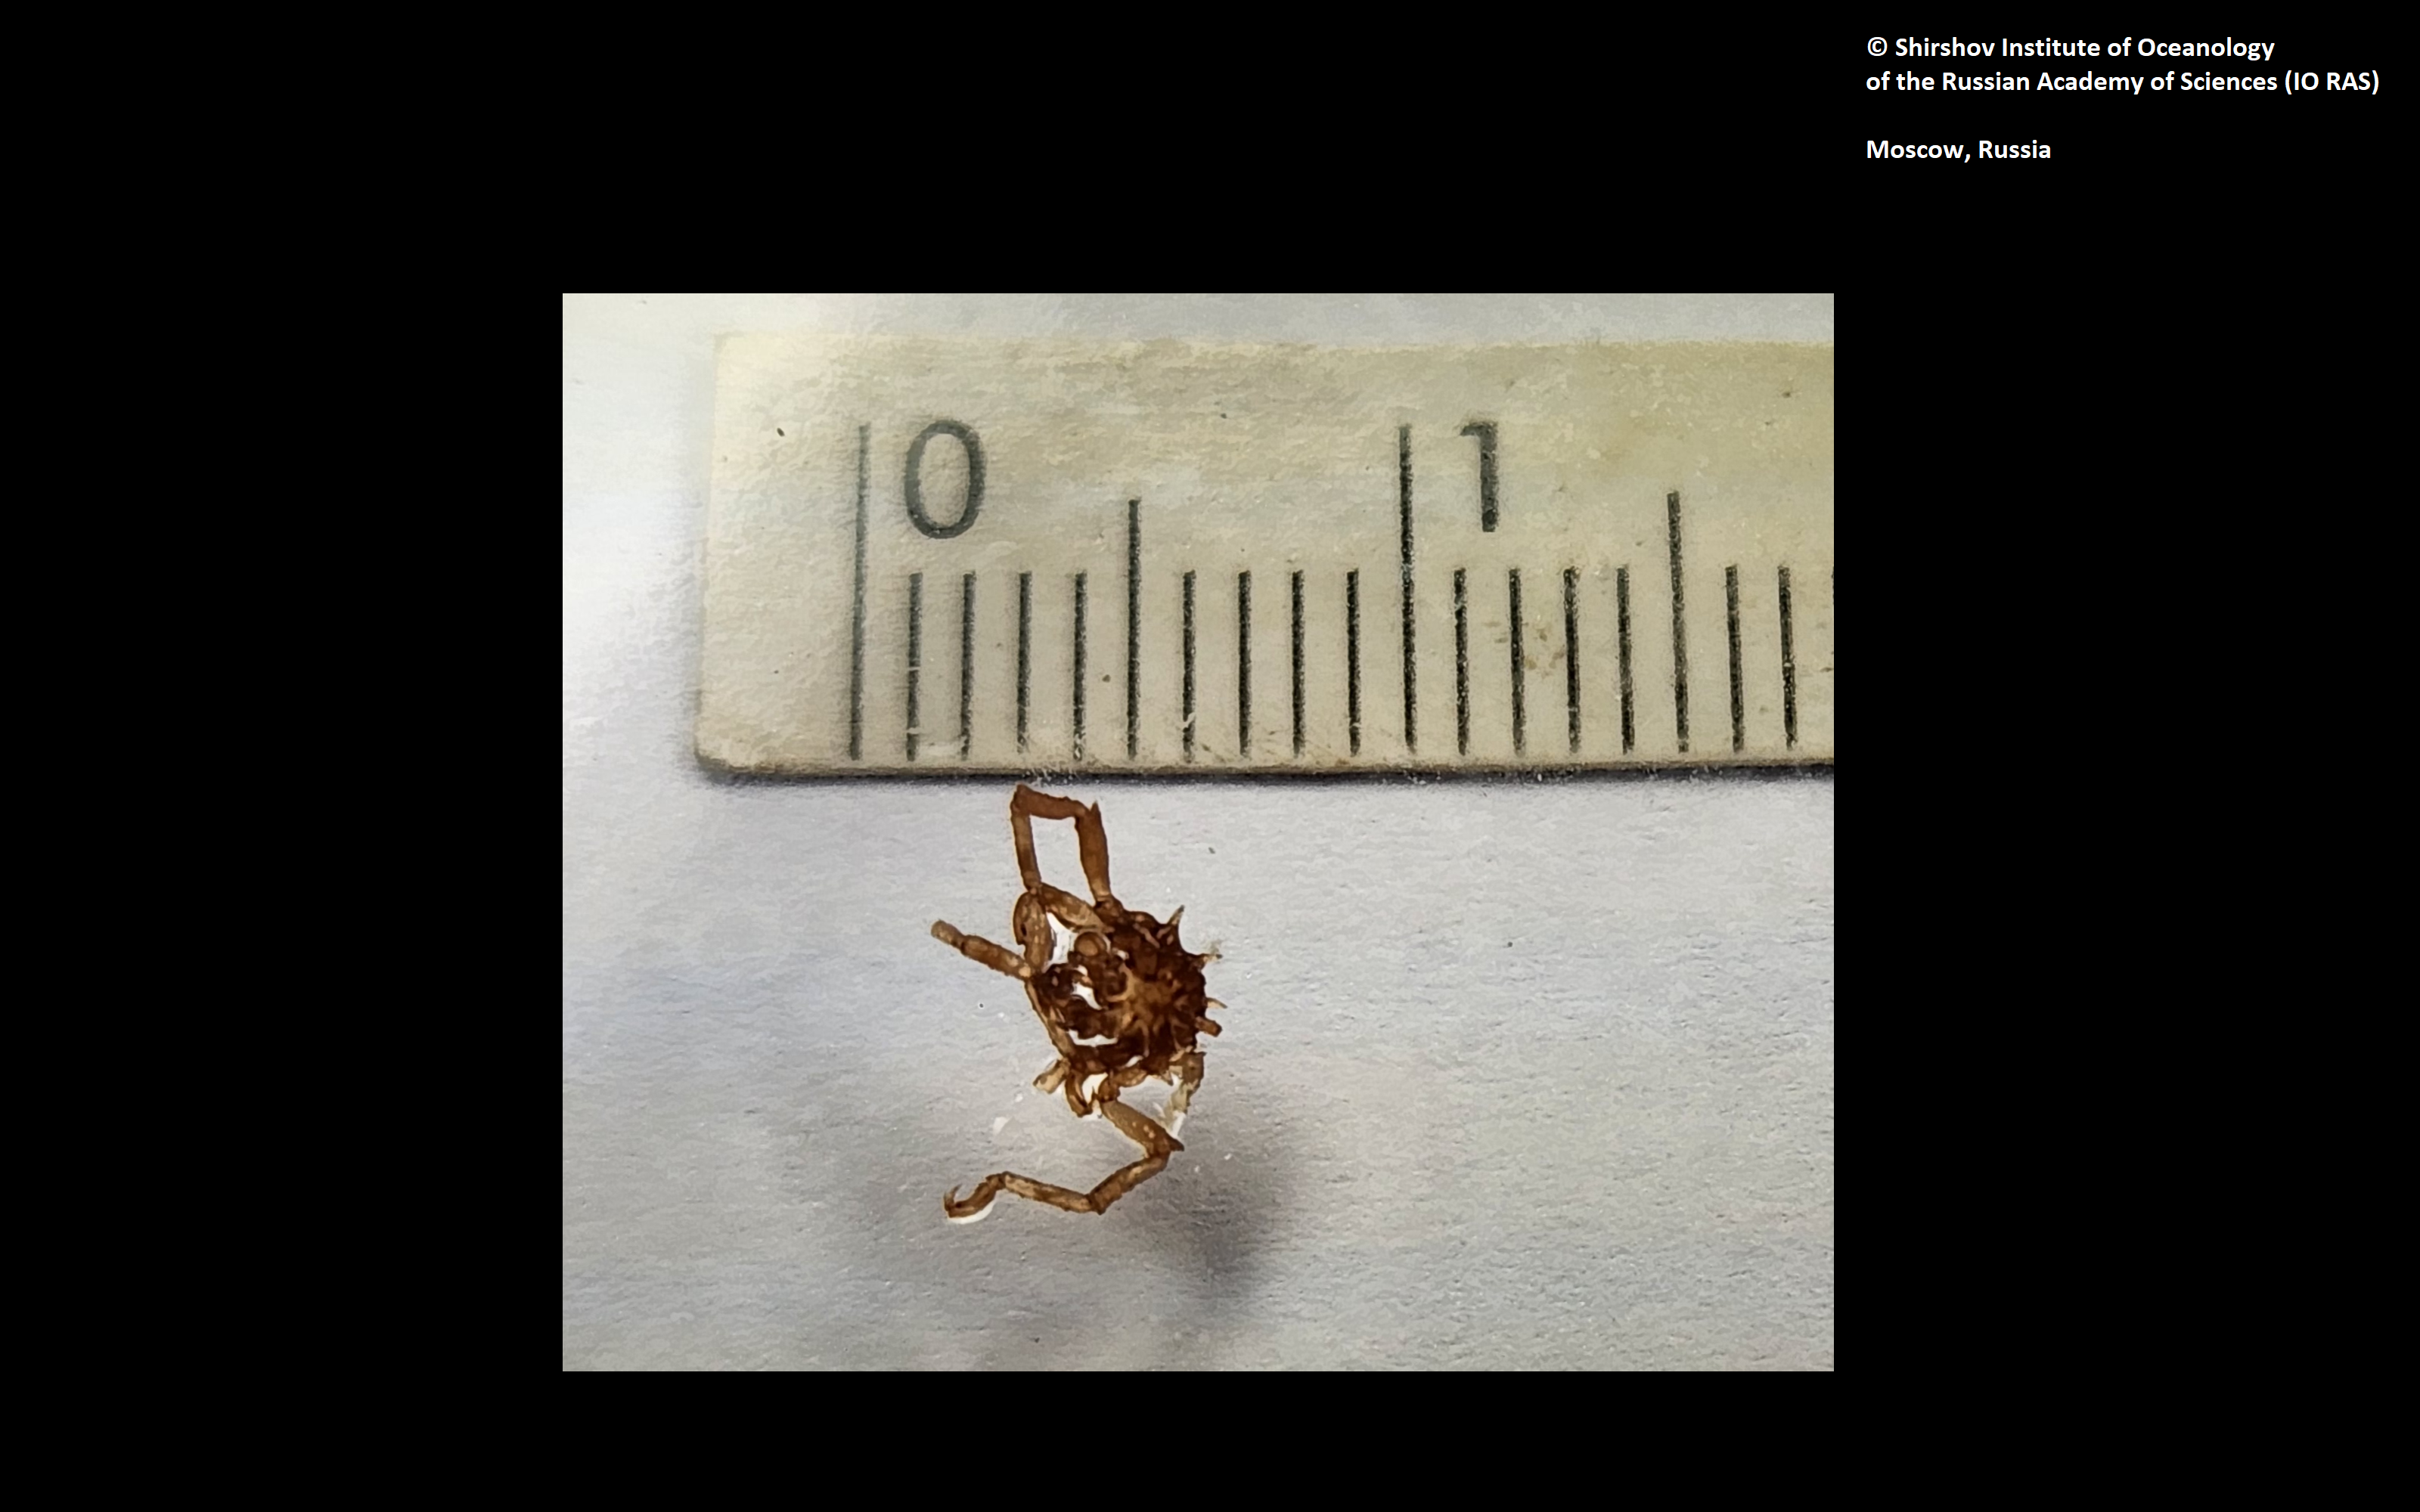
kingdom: Animalia
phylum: Arthropoda
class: Pycnogonida
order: Pantopoda
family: Ammotheidae
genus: Achelia
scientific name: Achelia alaskensis
